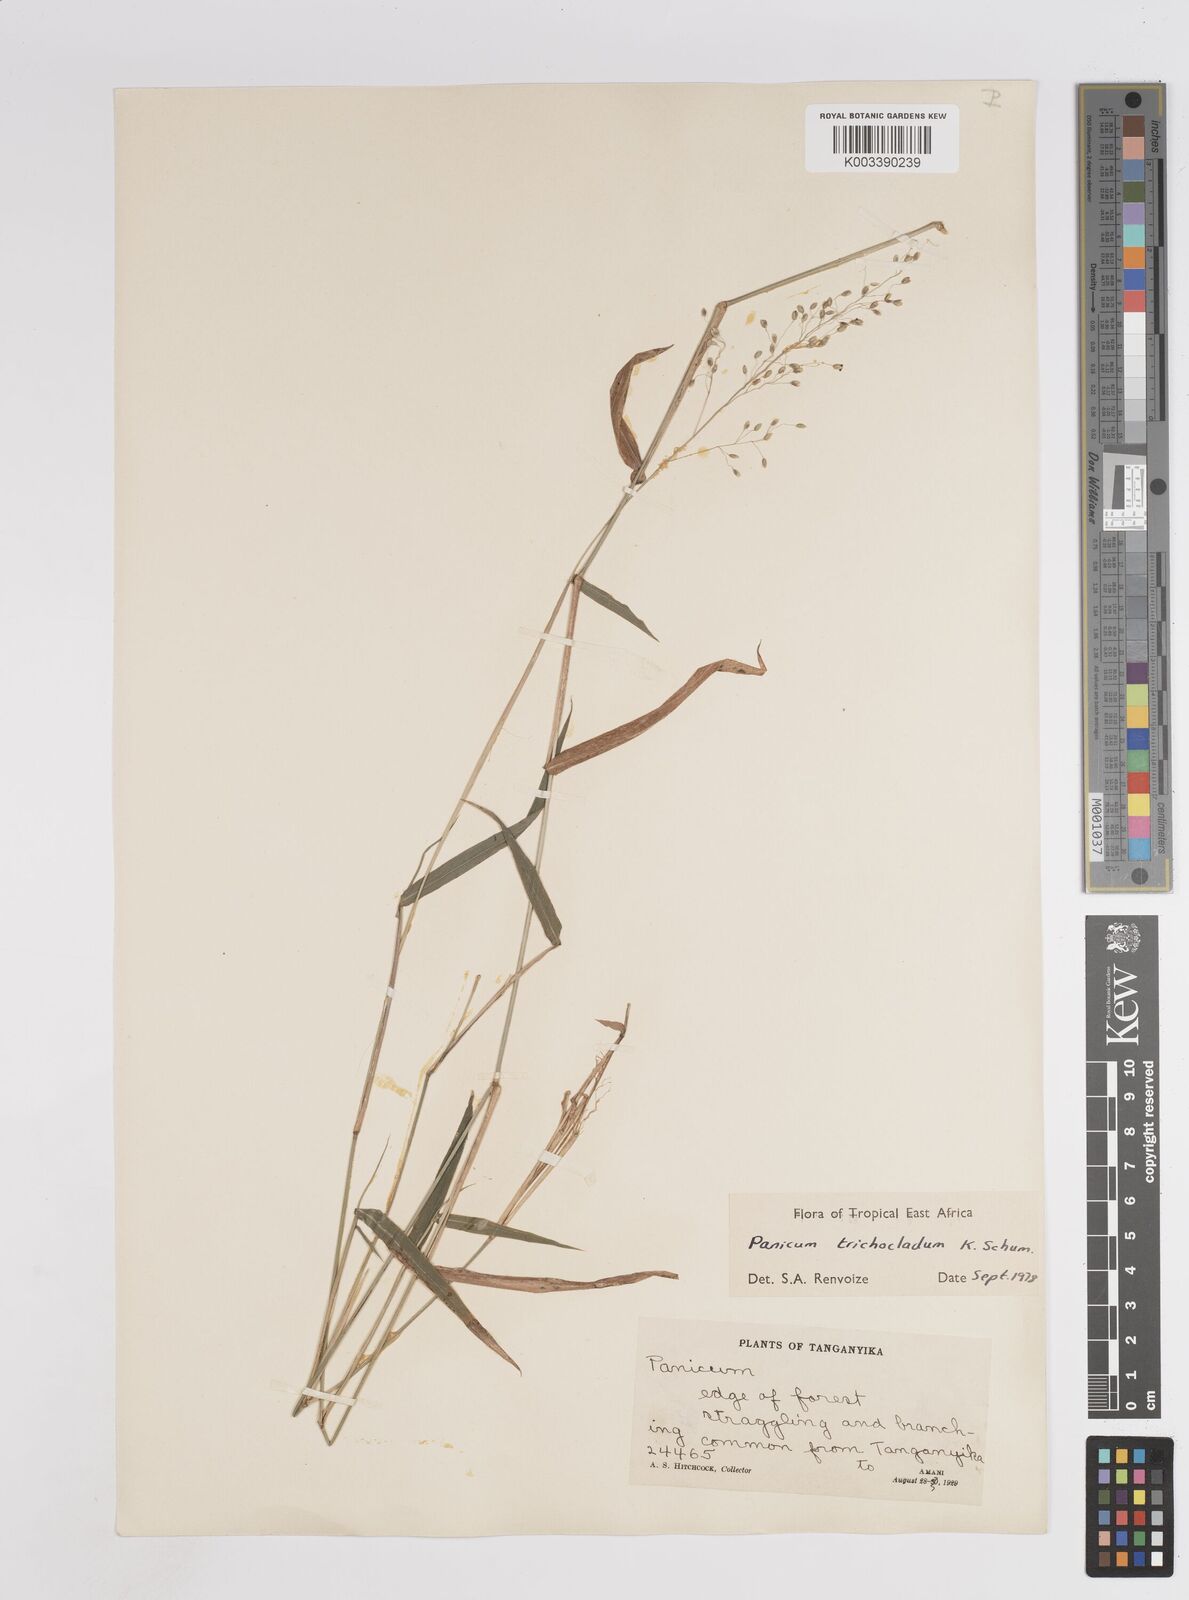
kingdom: Plantae
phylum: Tracheophyta
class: Liliopsida
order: Poales
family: Poaceae
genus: Panicum
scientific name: Panicum trichocladum
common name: Donkey grass
